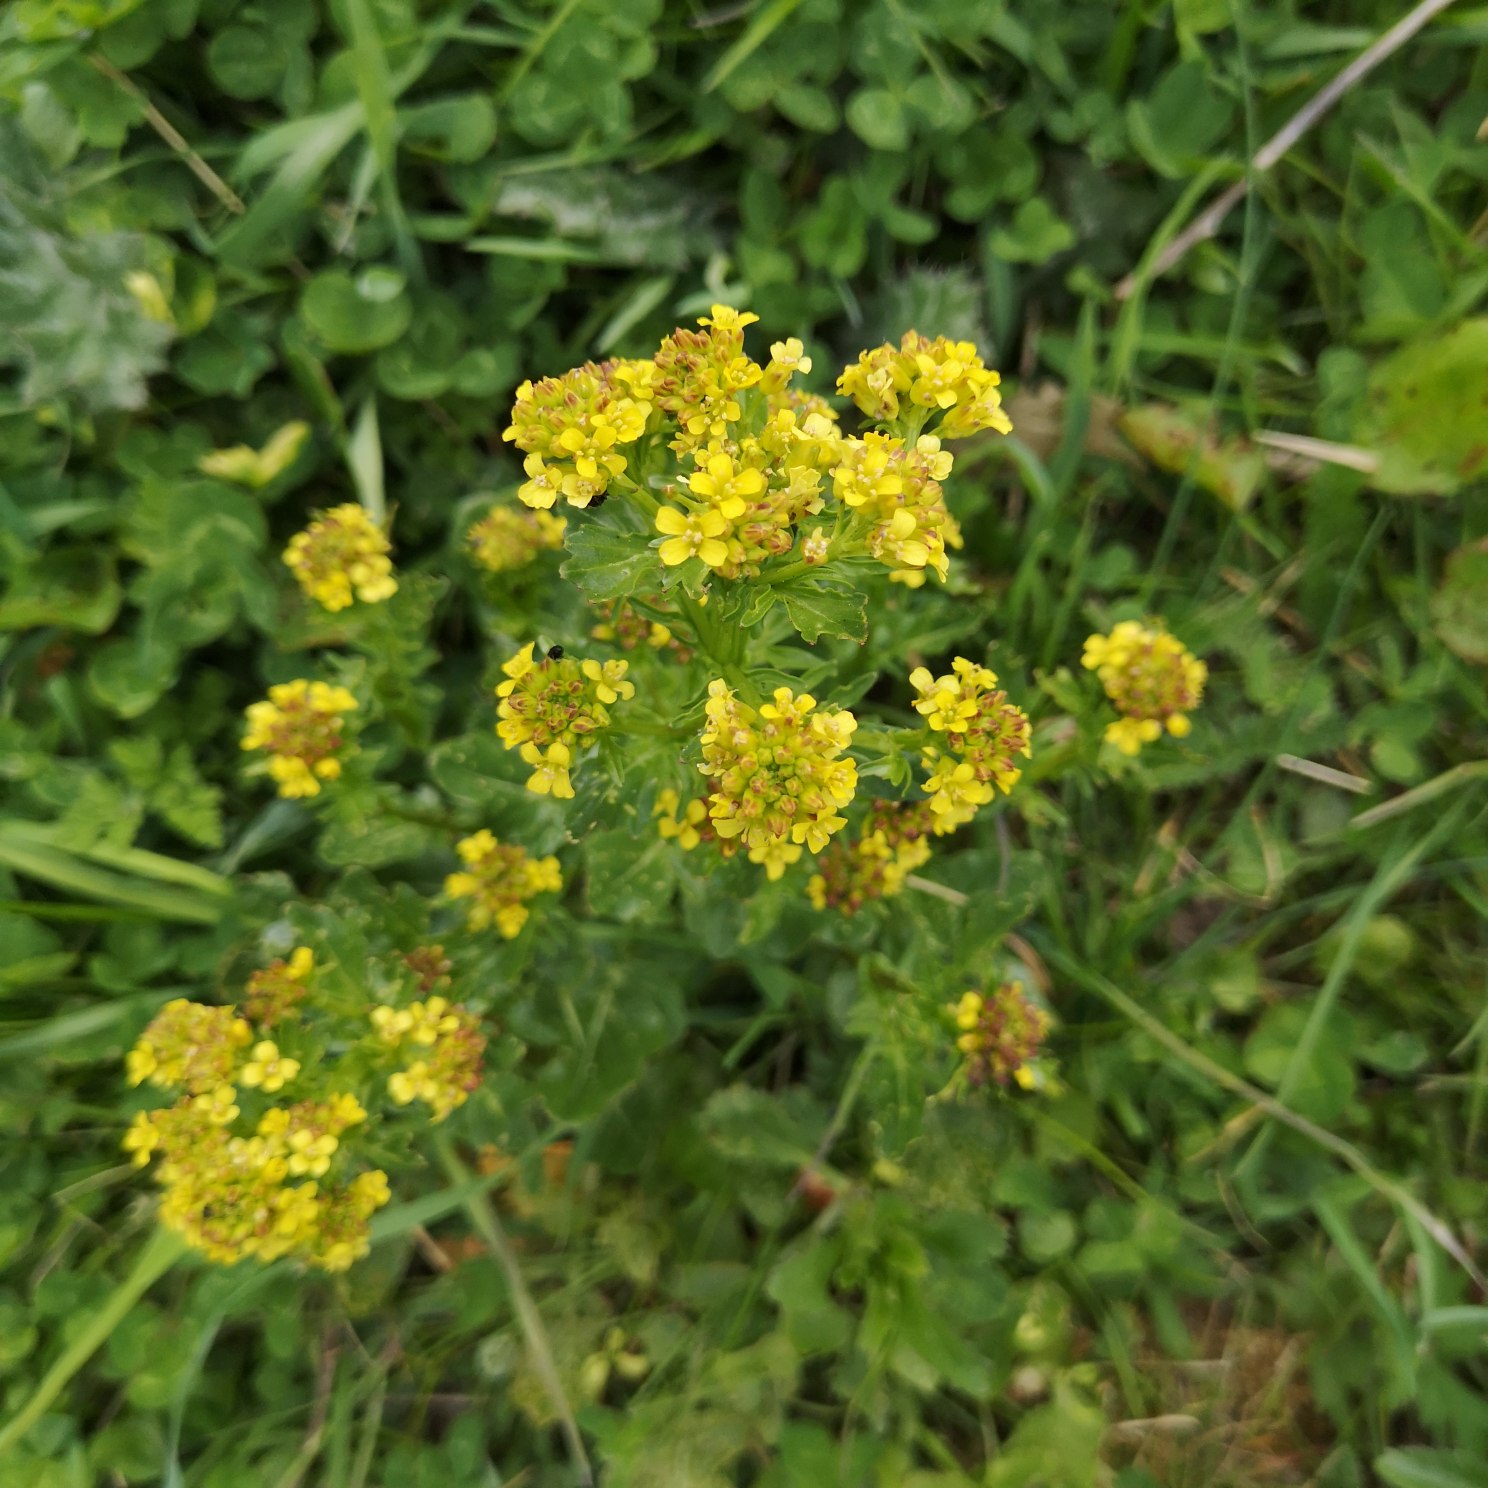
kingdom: Plantae
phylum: Tracheophyta
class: Magnoliopsida
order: Brassicales
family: Brassicaceae
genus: Barbarea
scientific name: Barbarea vulgaris
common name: Almindelig vinterkarse
